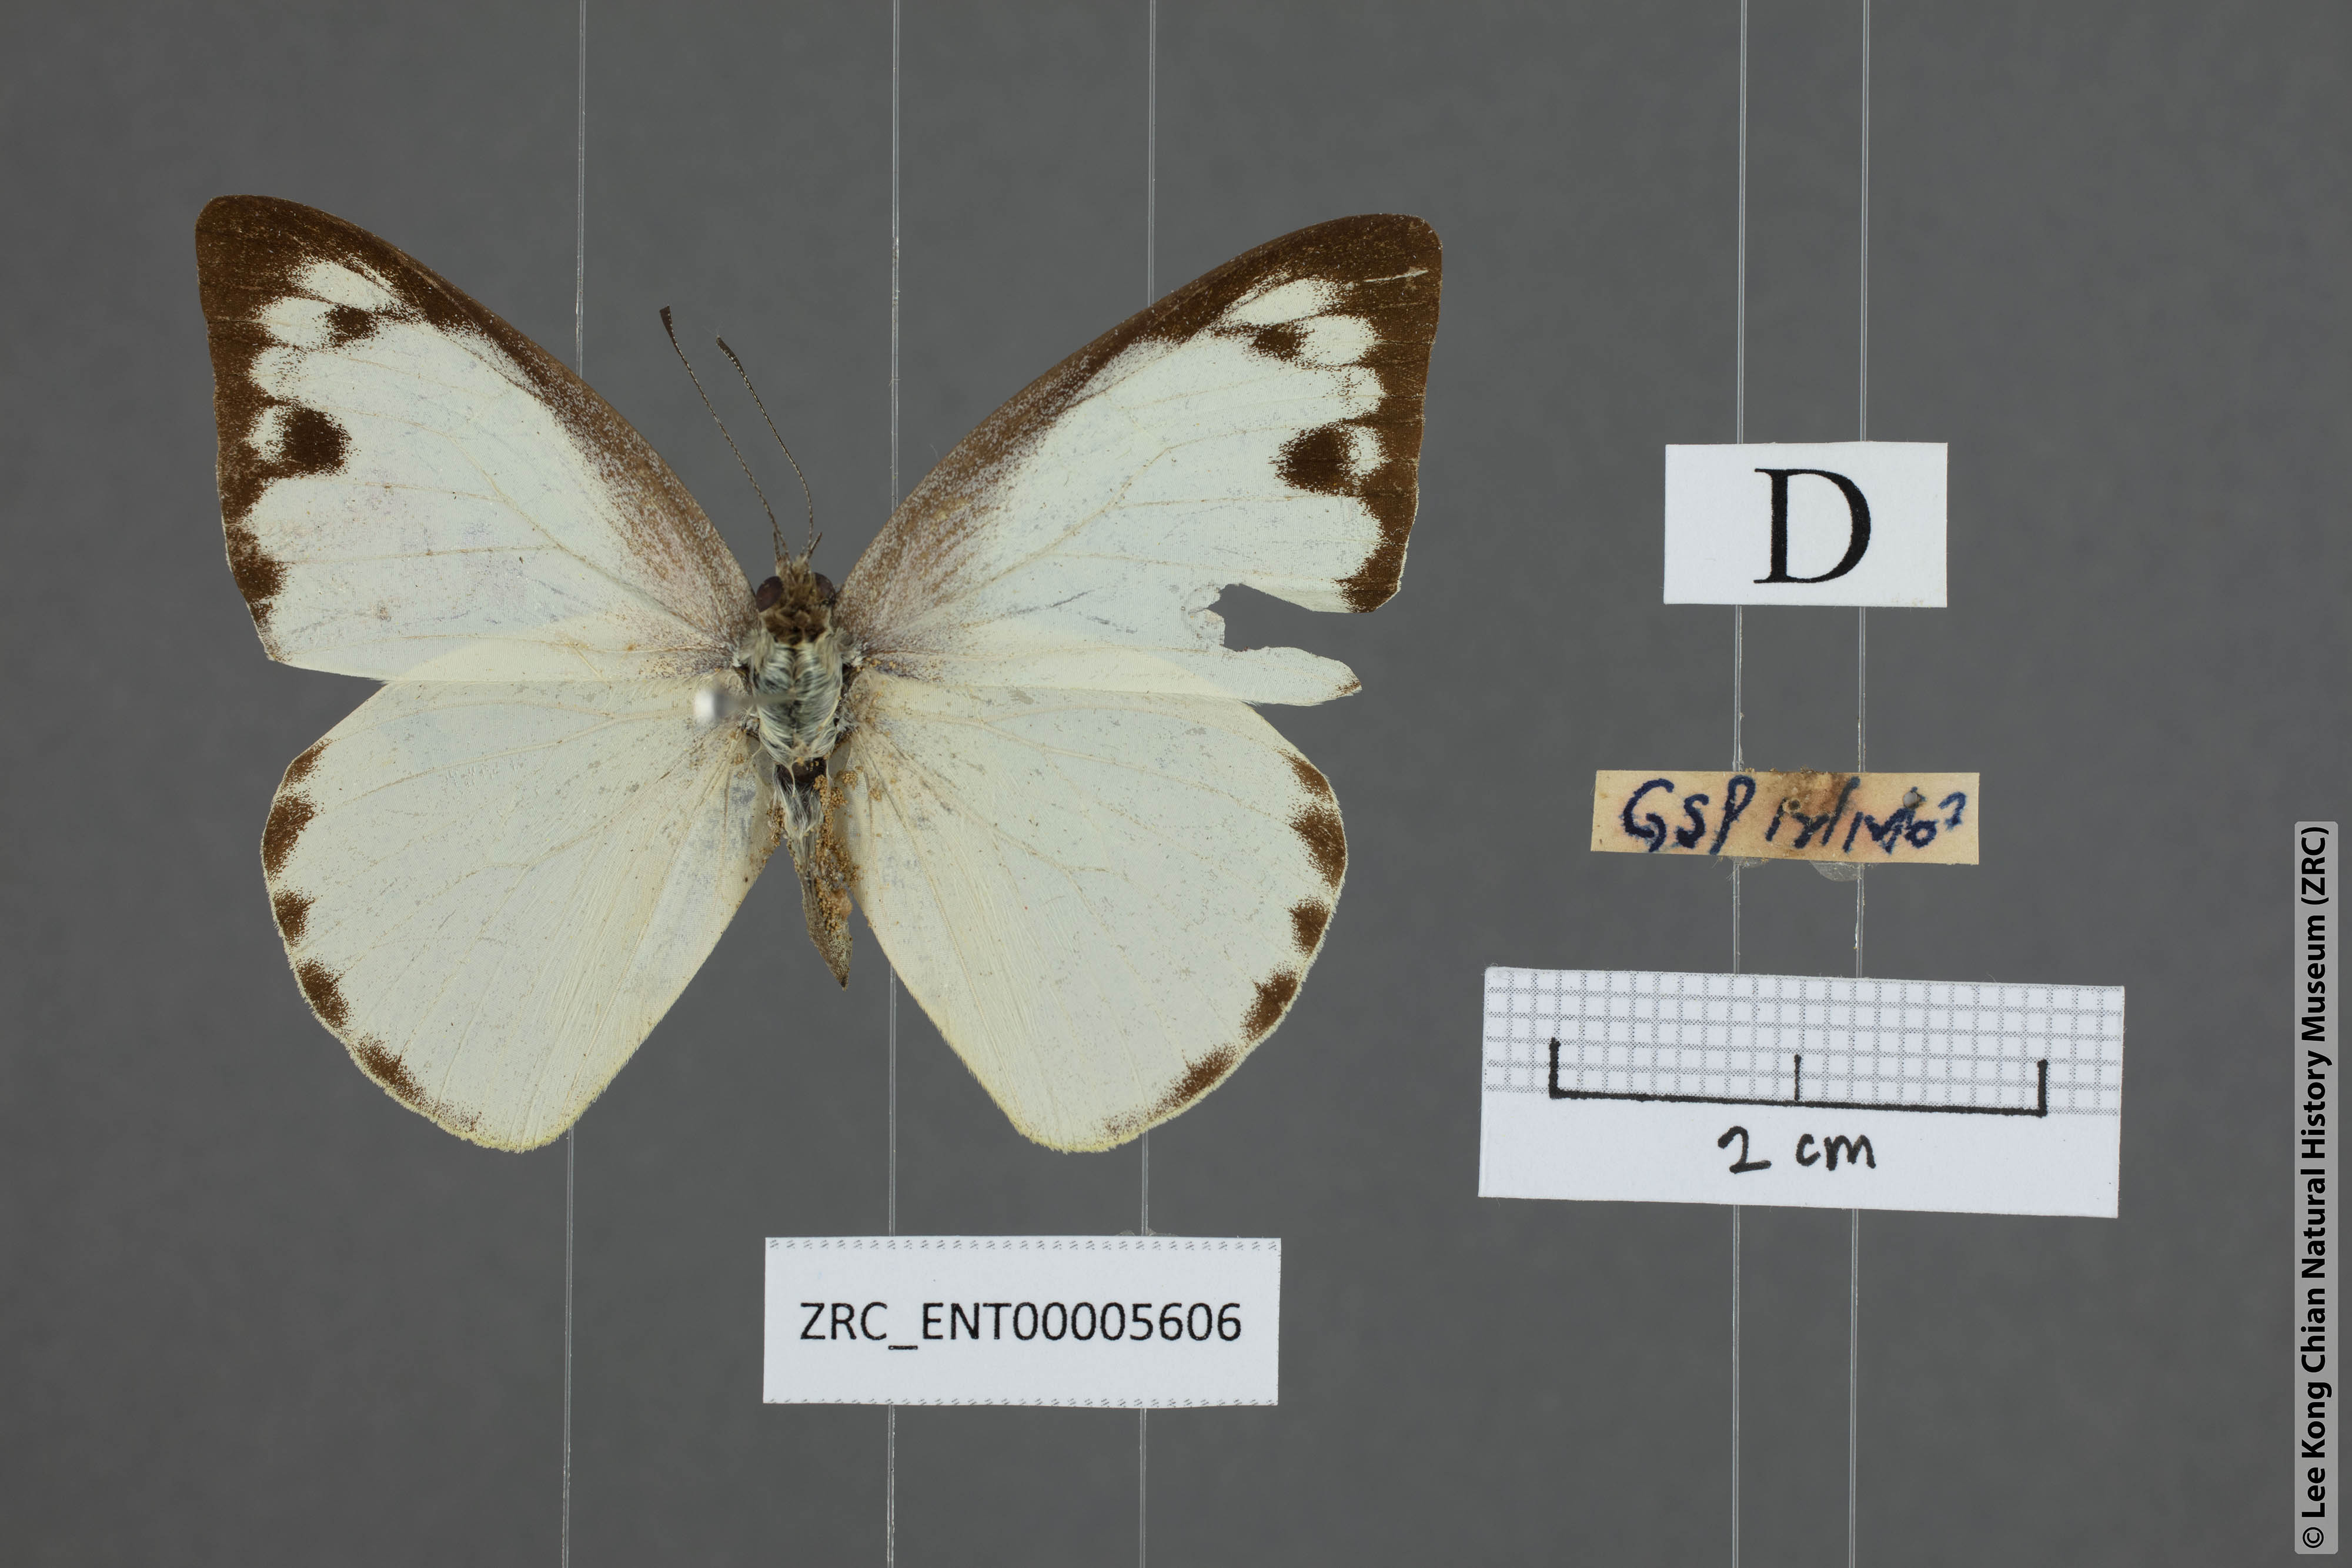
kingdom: Animalia
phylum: Arthropoda
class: Insecta
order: Lepidoptera
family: Pieridae
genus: Appias
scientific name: Appias paulina
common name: Ceylon lesser albatross
